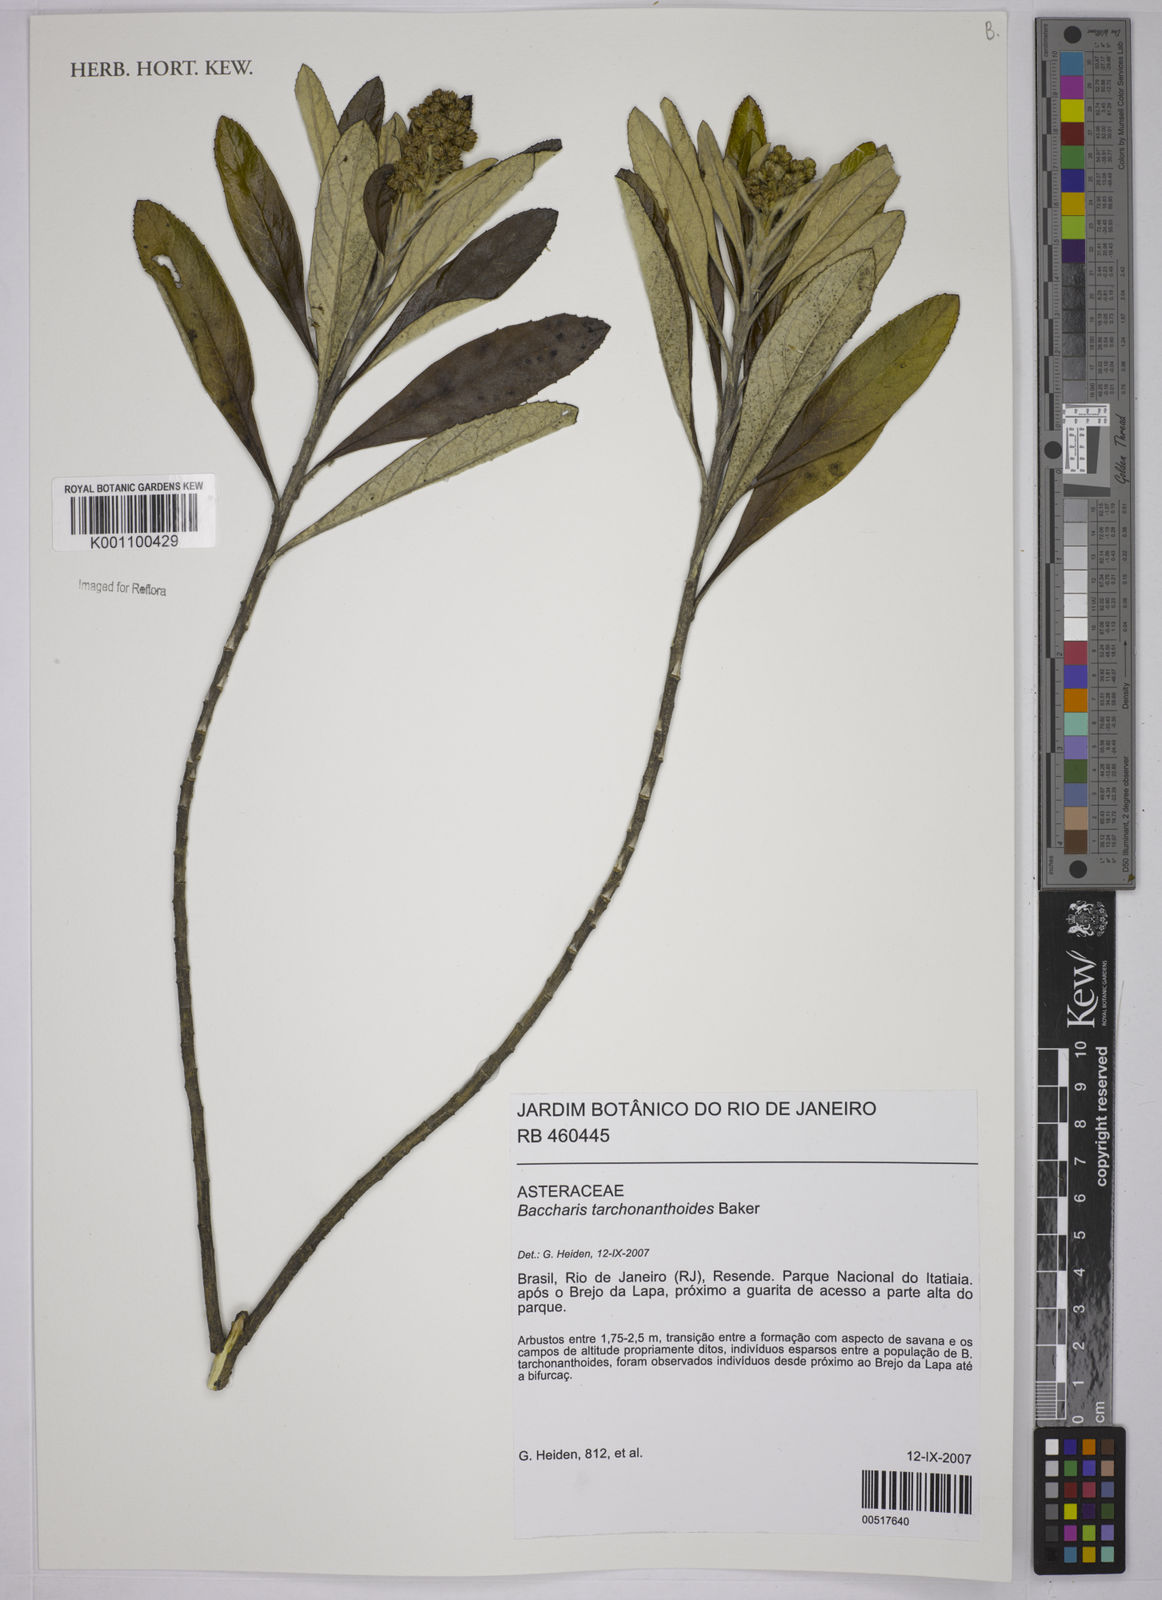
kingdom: Plantae
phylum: Tracheophyta
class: Magnoliopsida
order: Asterales
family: Asteraceae
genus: Baccharis
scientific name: Baccharis
